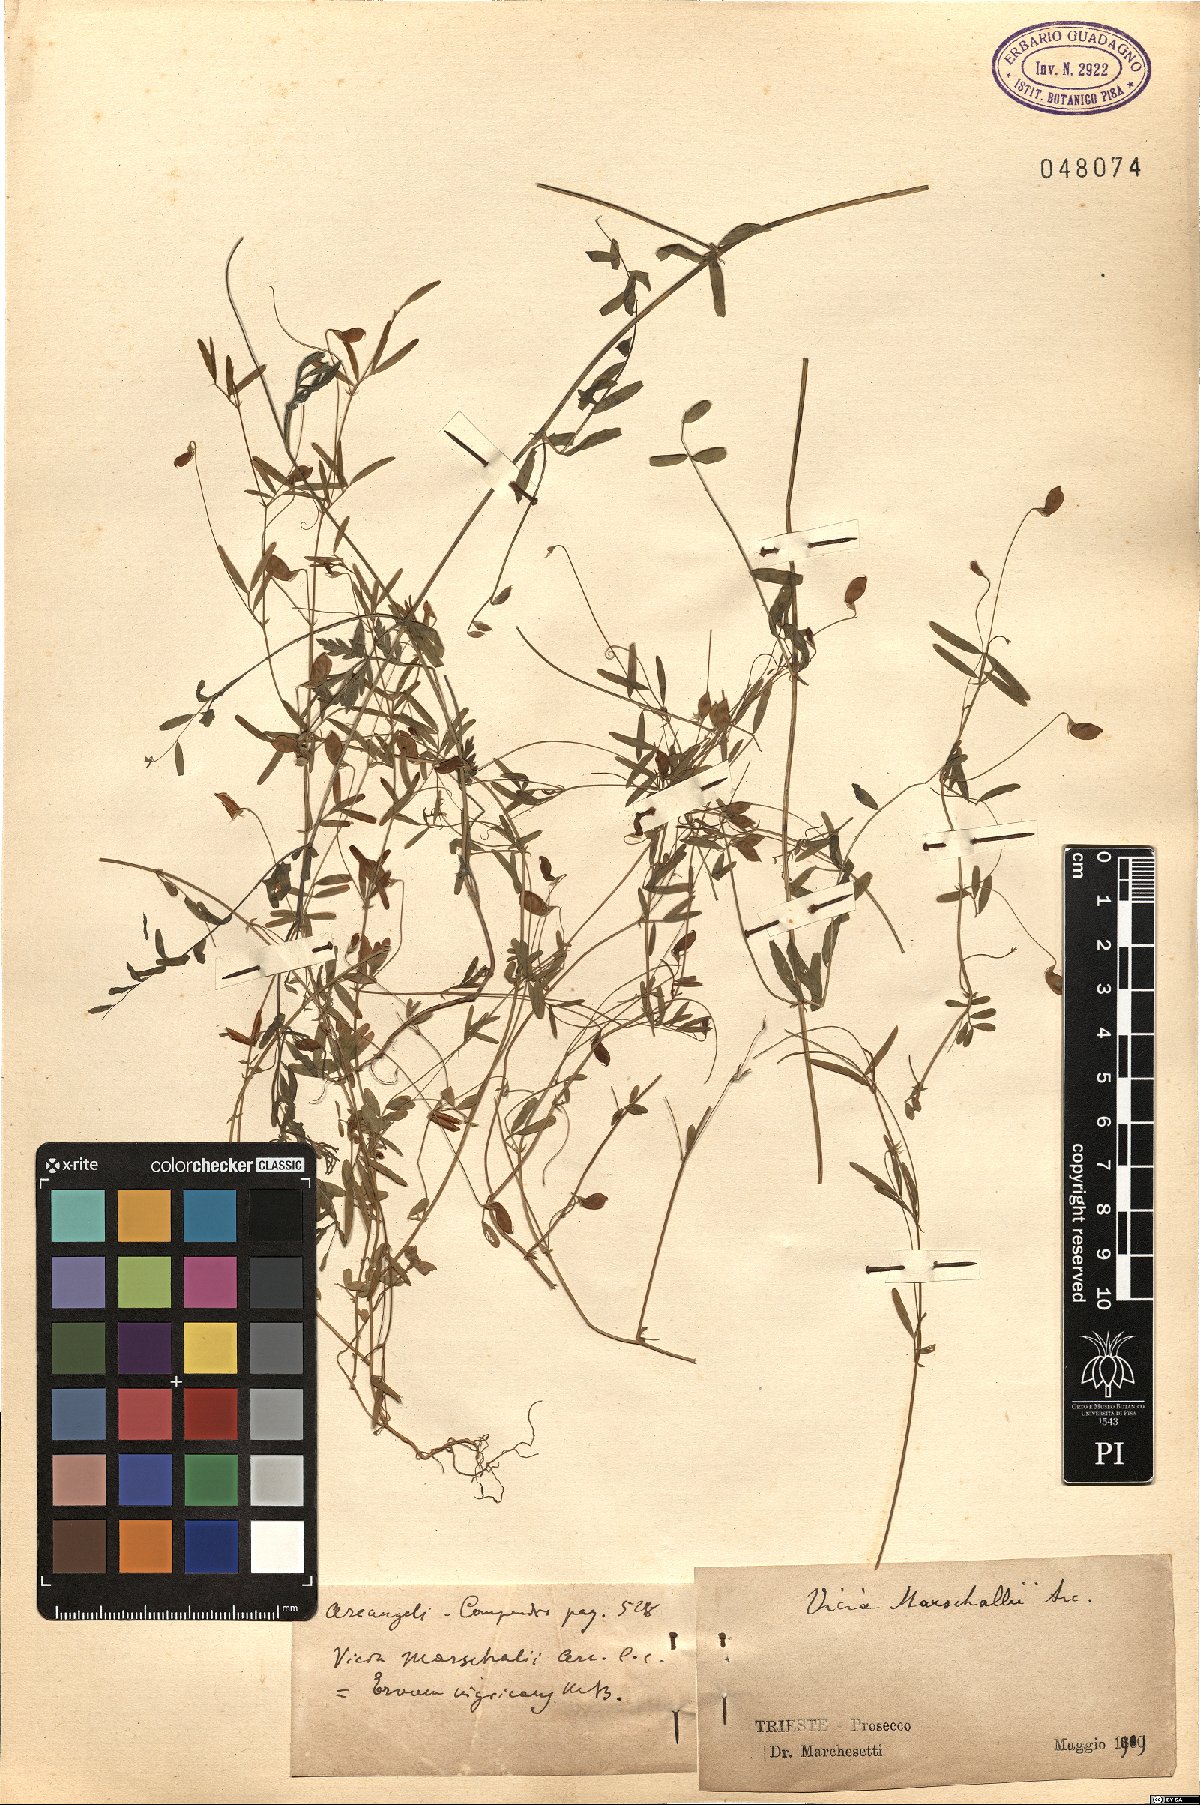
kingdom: Plantae
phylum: Tracheophyta
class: Magnoliopsida
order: Fabales
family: Fabaceae
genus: Vicia
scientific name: Vicia lentoides
